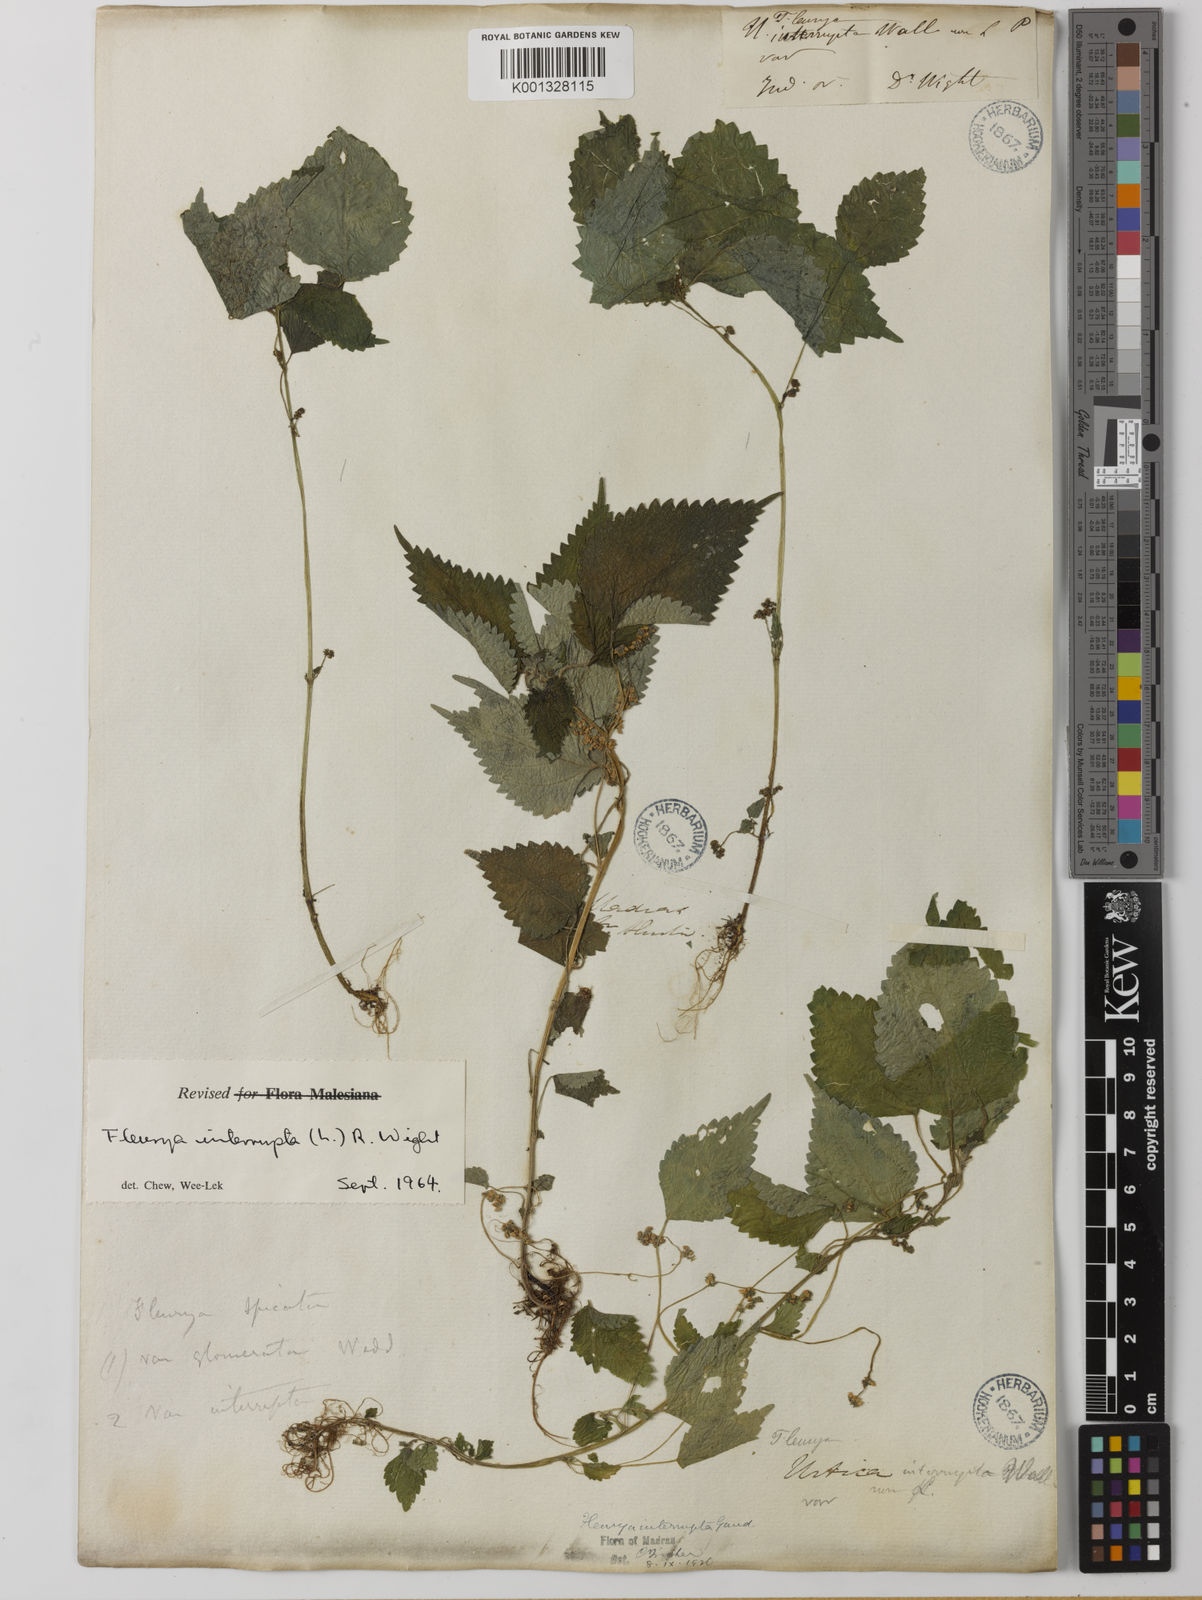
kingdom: Plantae
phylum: Tracheophyta
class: Magnoliopsida
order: Rosales
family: Urticaceae
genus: Laportea
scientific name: Laportea interrupta
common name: Hawaiian wood-nettle
